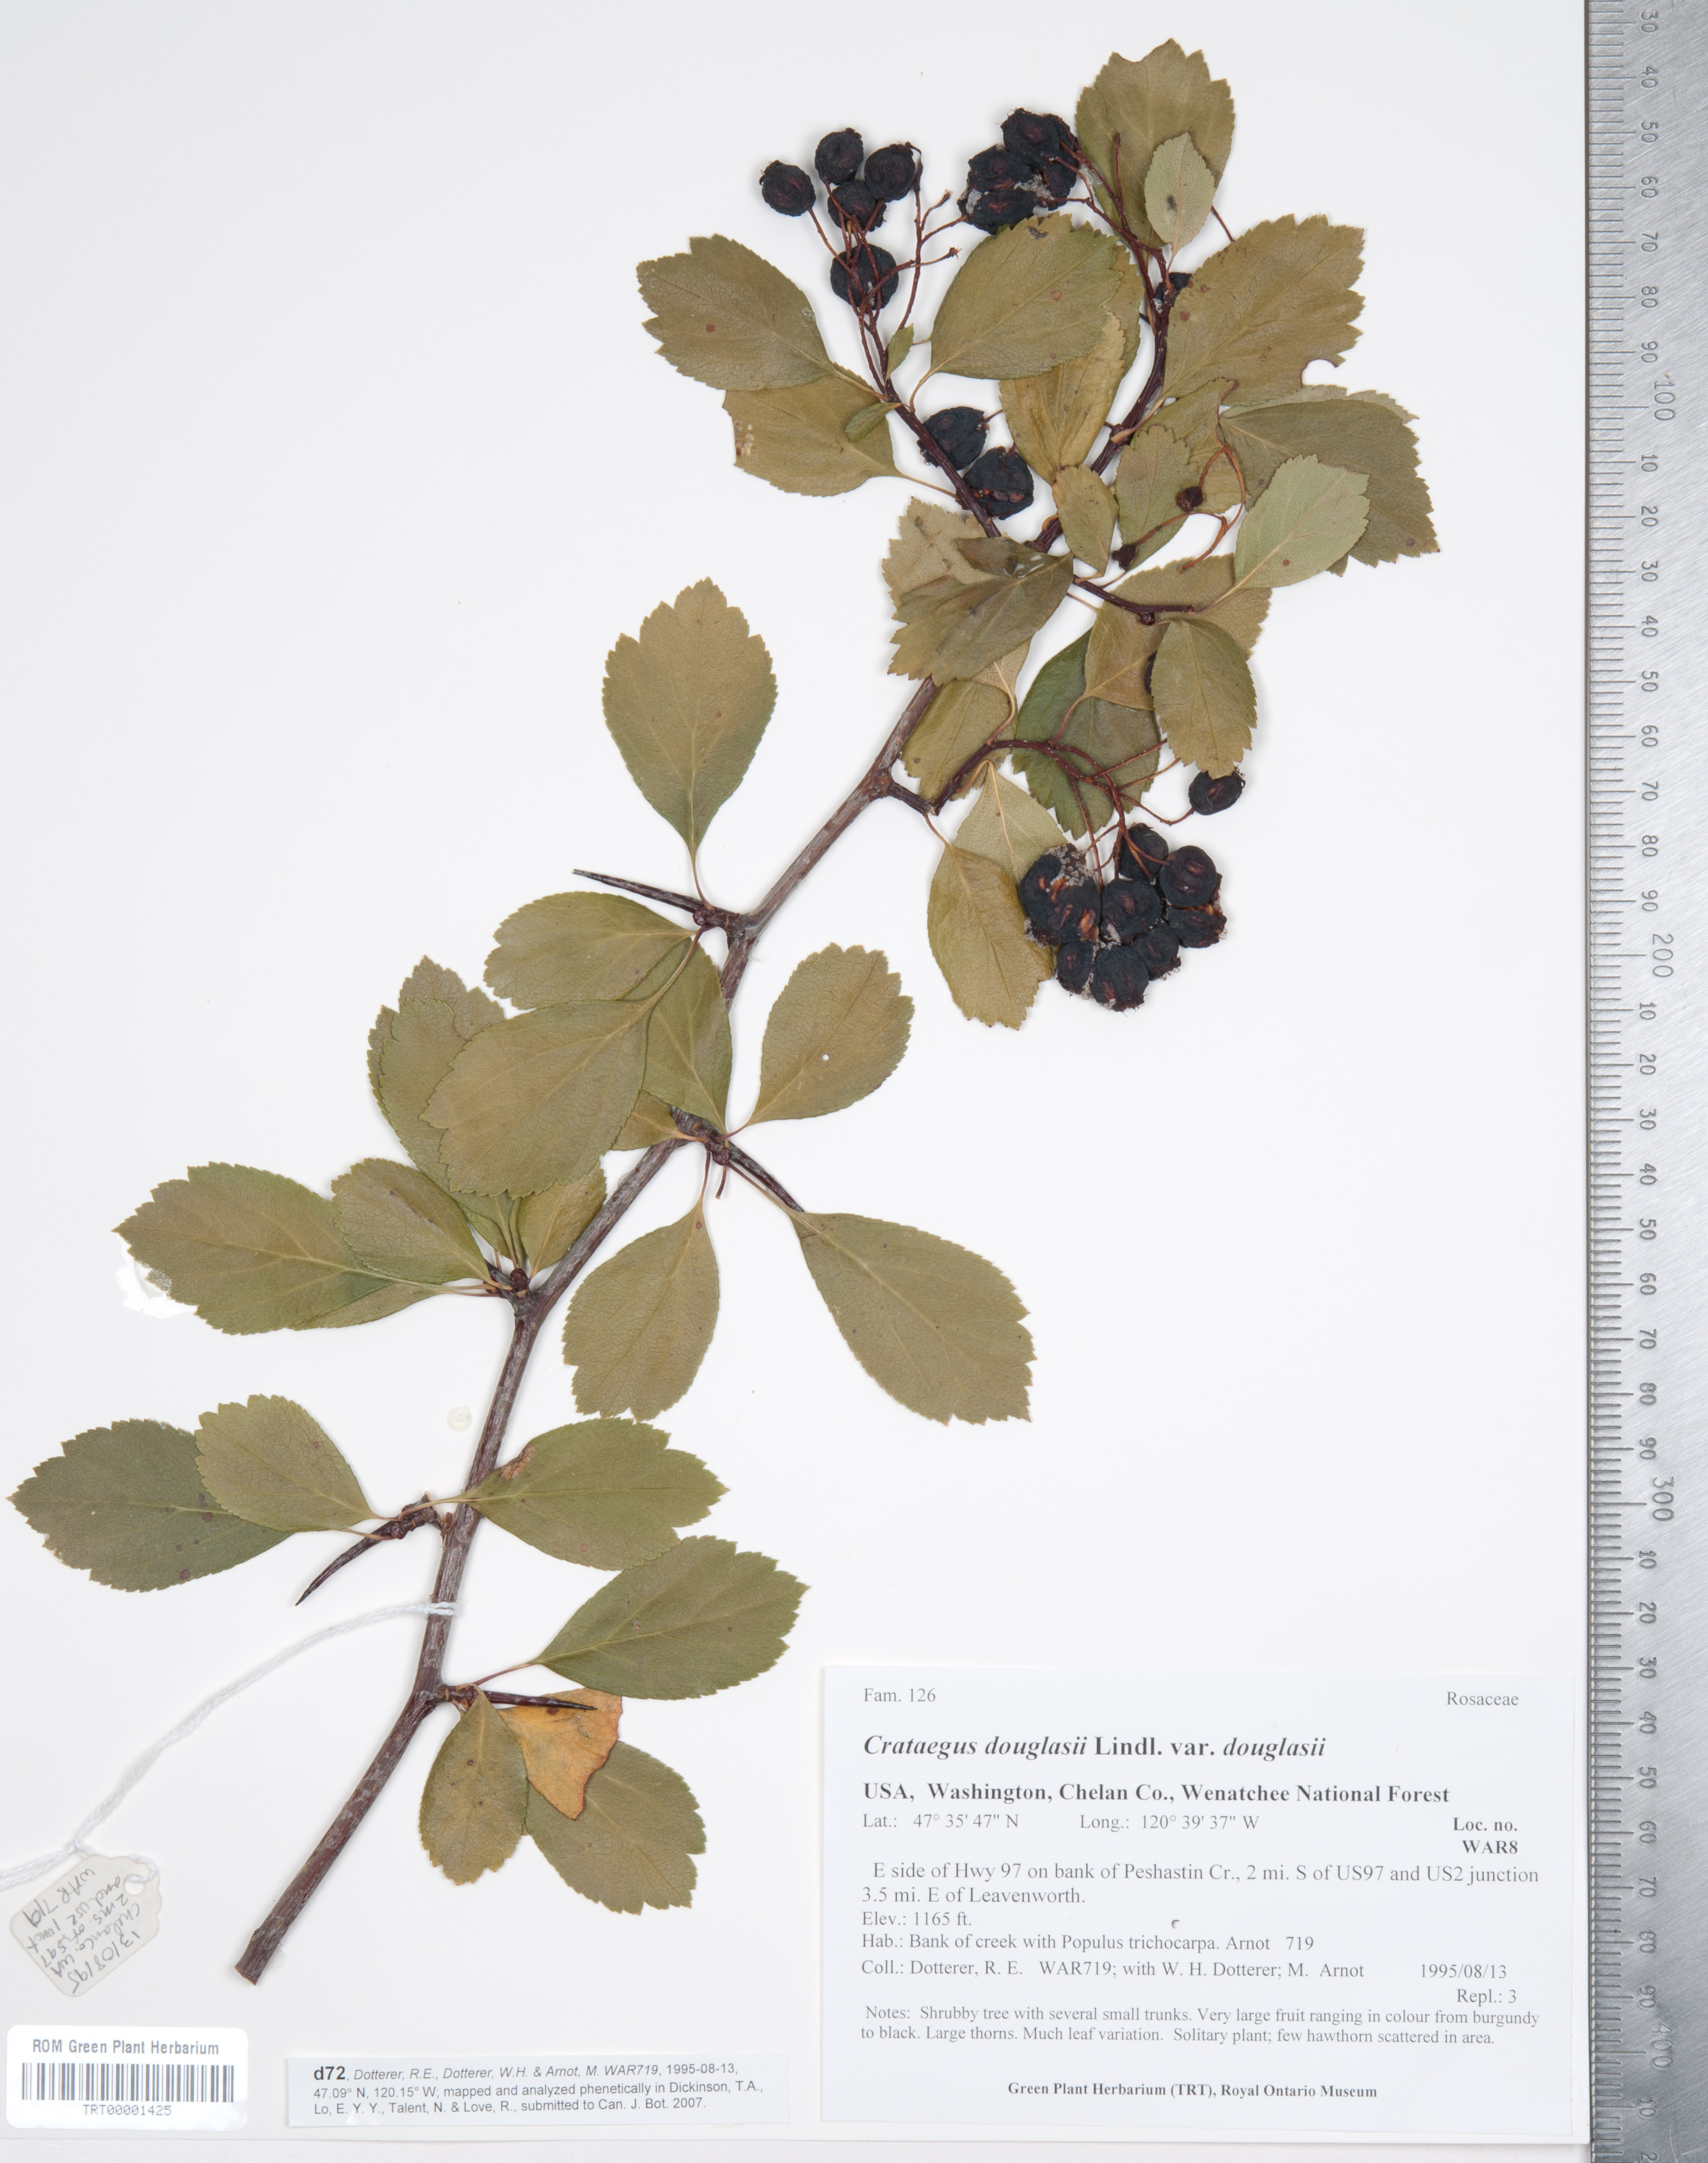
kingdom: Plantae
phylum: Tracheophyta
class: Magnoliopsida
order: Rosales
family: Rosaceae
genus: Crataegus
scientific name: Crataegus douglasii
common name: Black hawthorn
